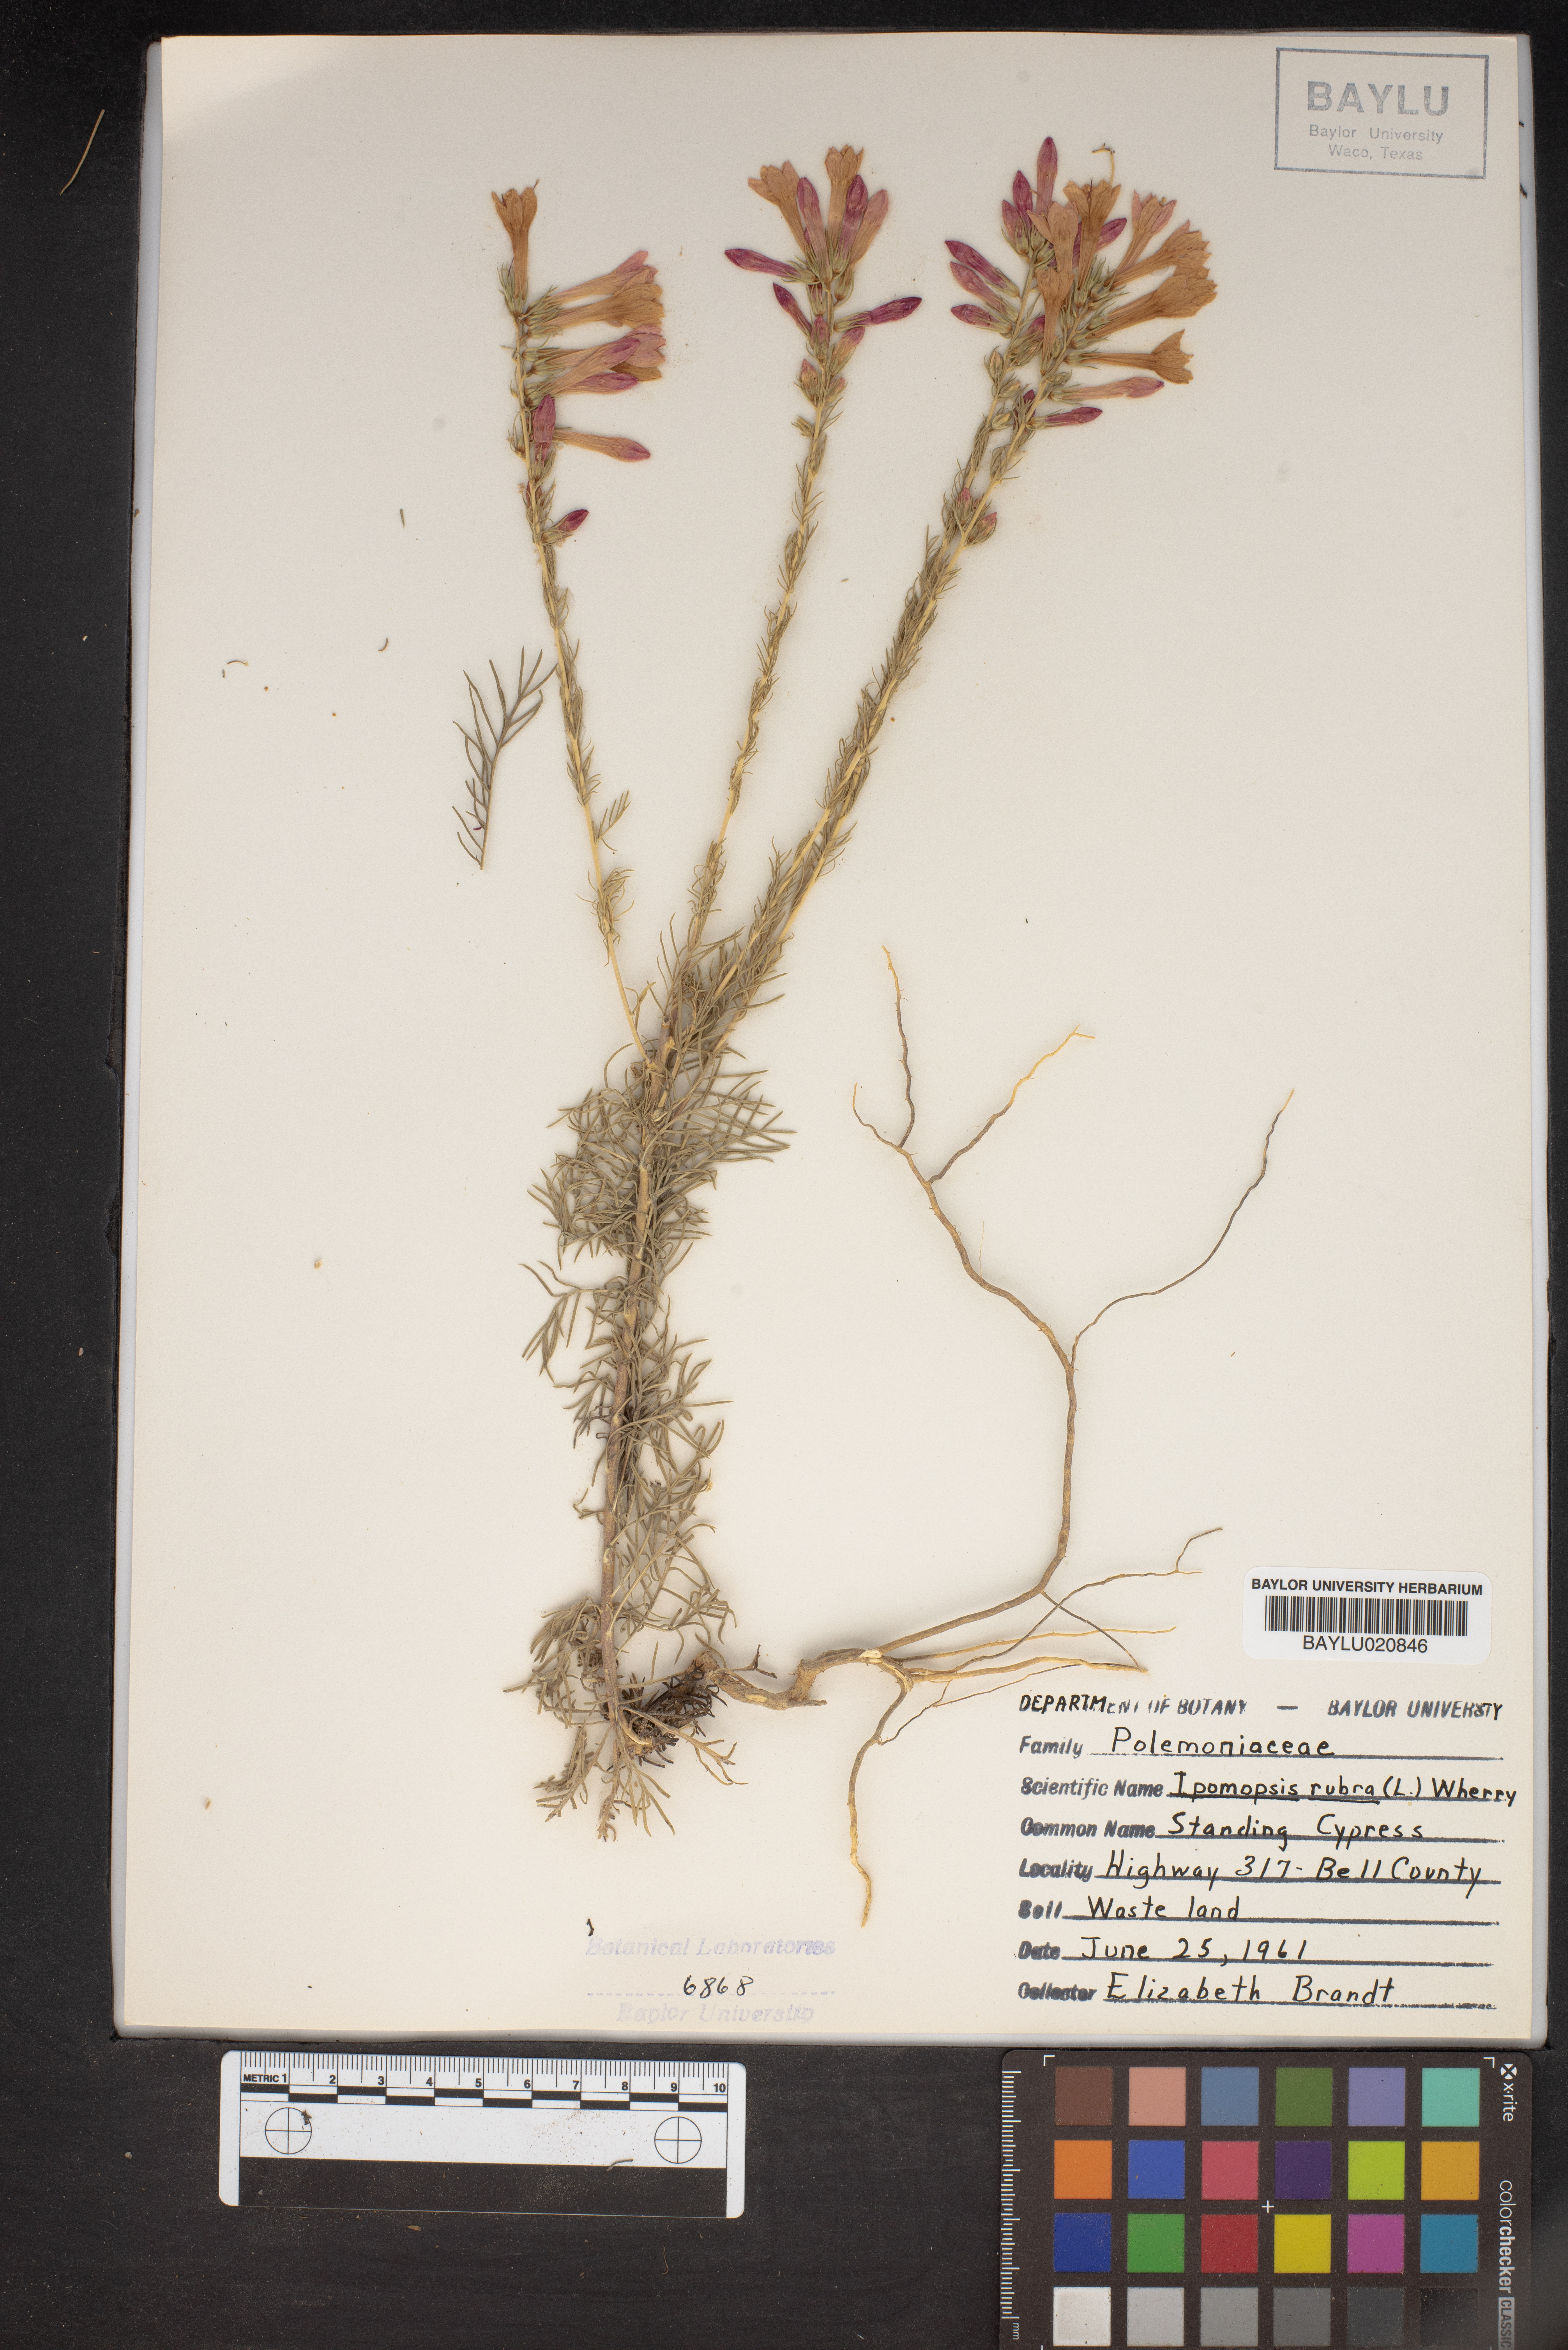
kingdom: Plantae
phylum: Tracheophyta
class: Magnoliopsida
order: Ericales
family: Polemoniaceae
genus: Ipomopsis
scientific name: Ipomopsis rubra
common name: Skyrocket
